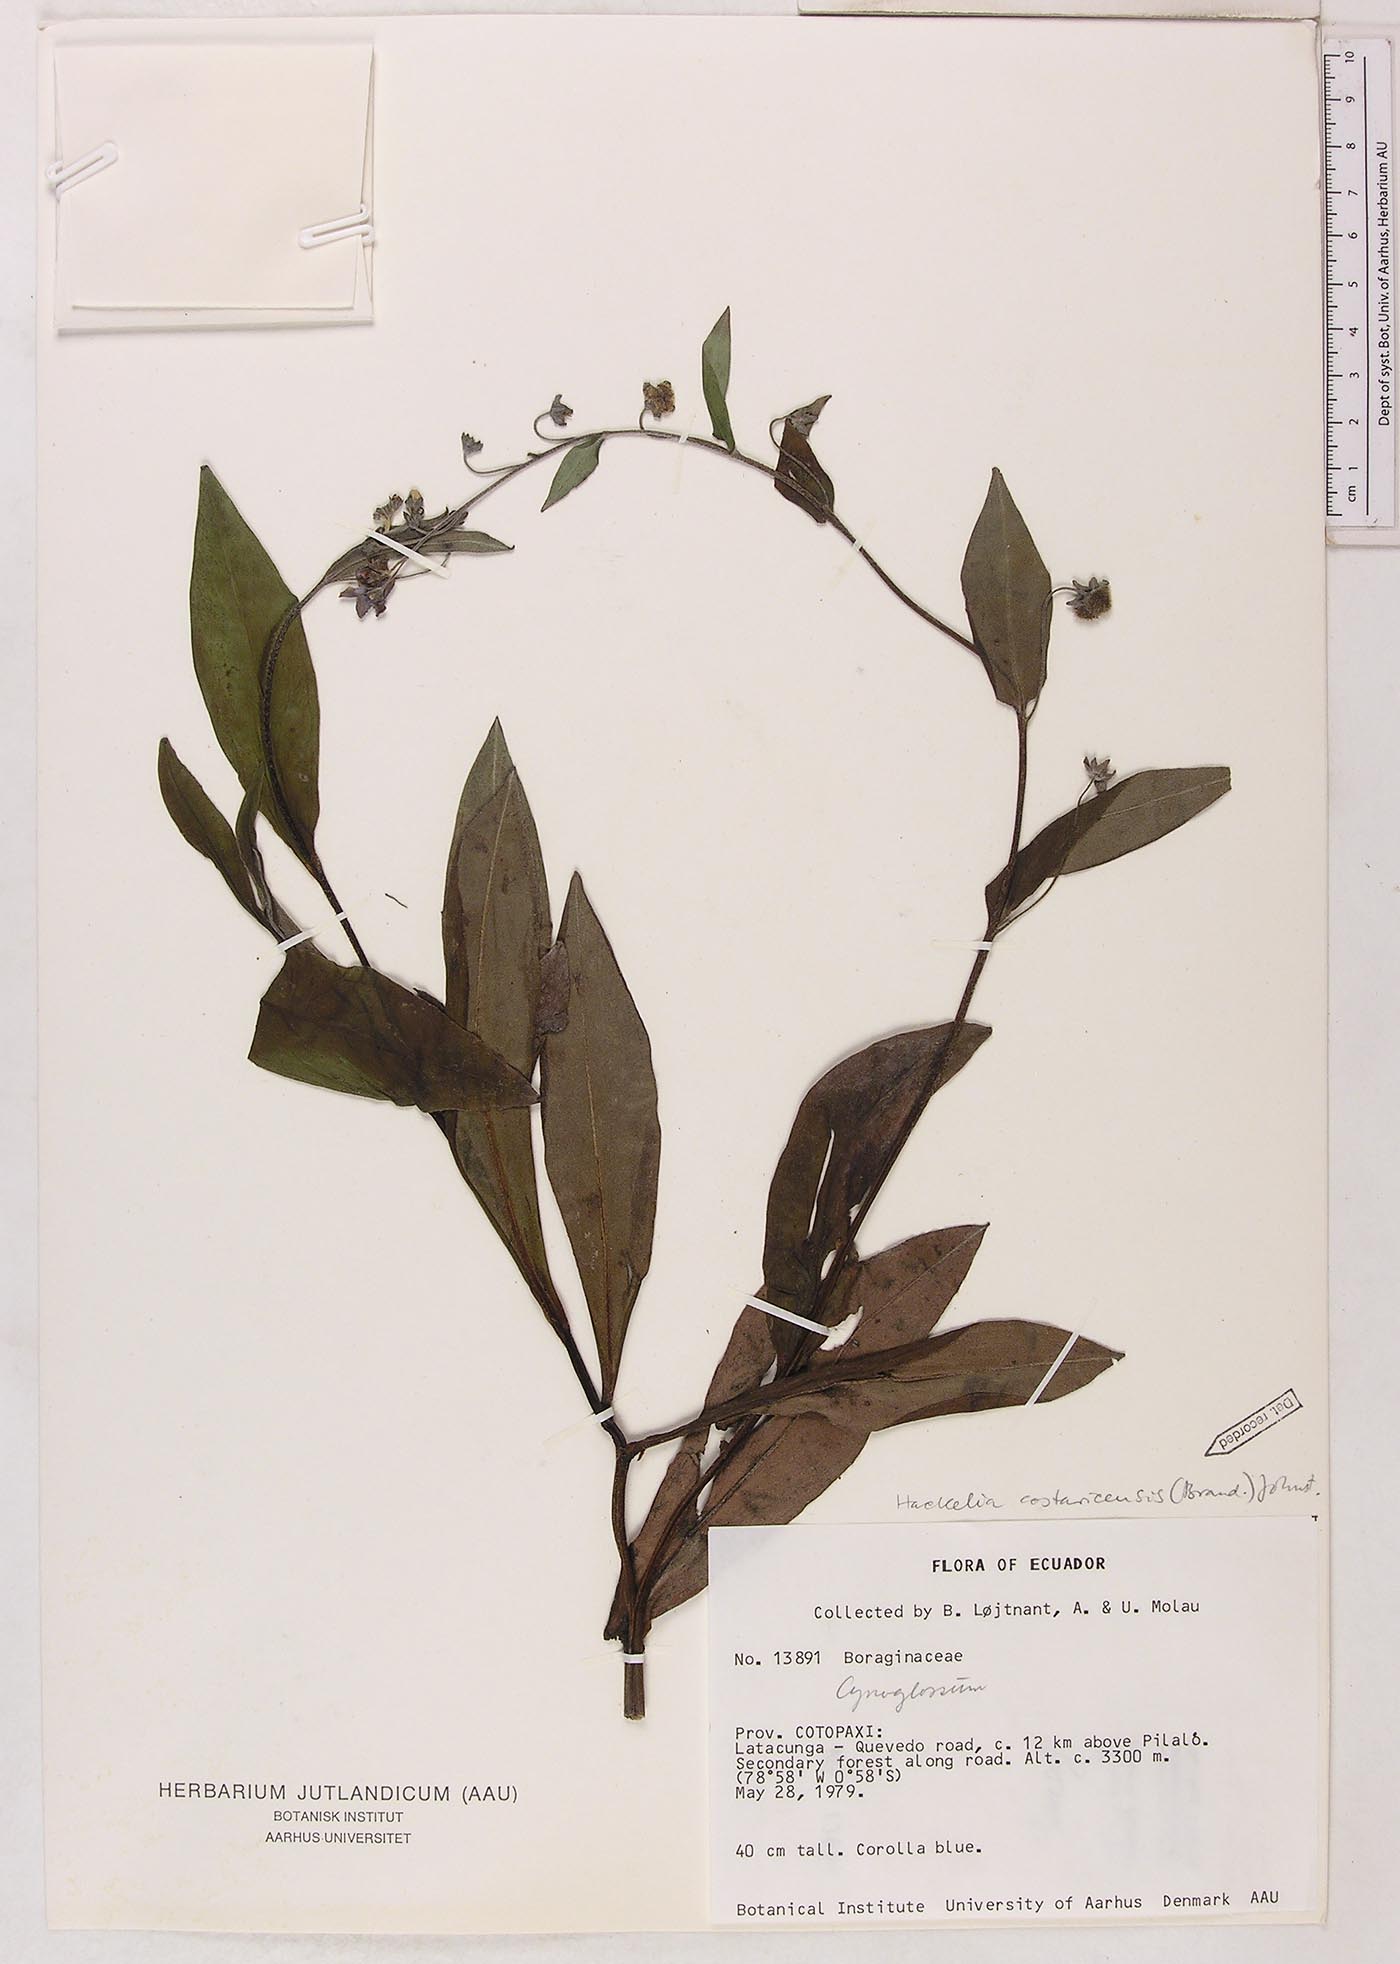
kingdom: Plantae
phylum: Tracheophyta
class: Magnoliopsida
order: Boraginales
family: Boraginaceae
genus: Selkirkia
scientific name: Selkirkia trianaeum
